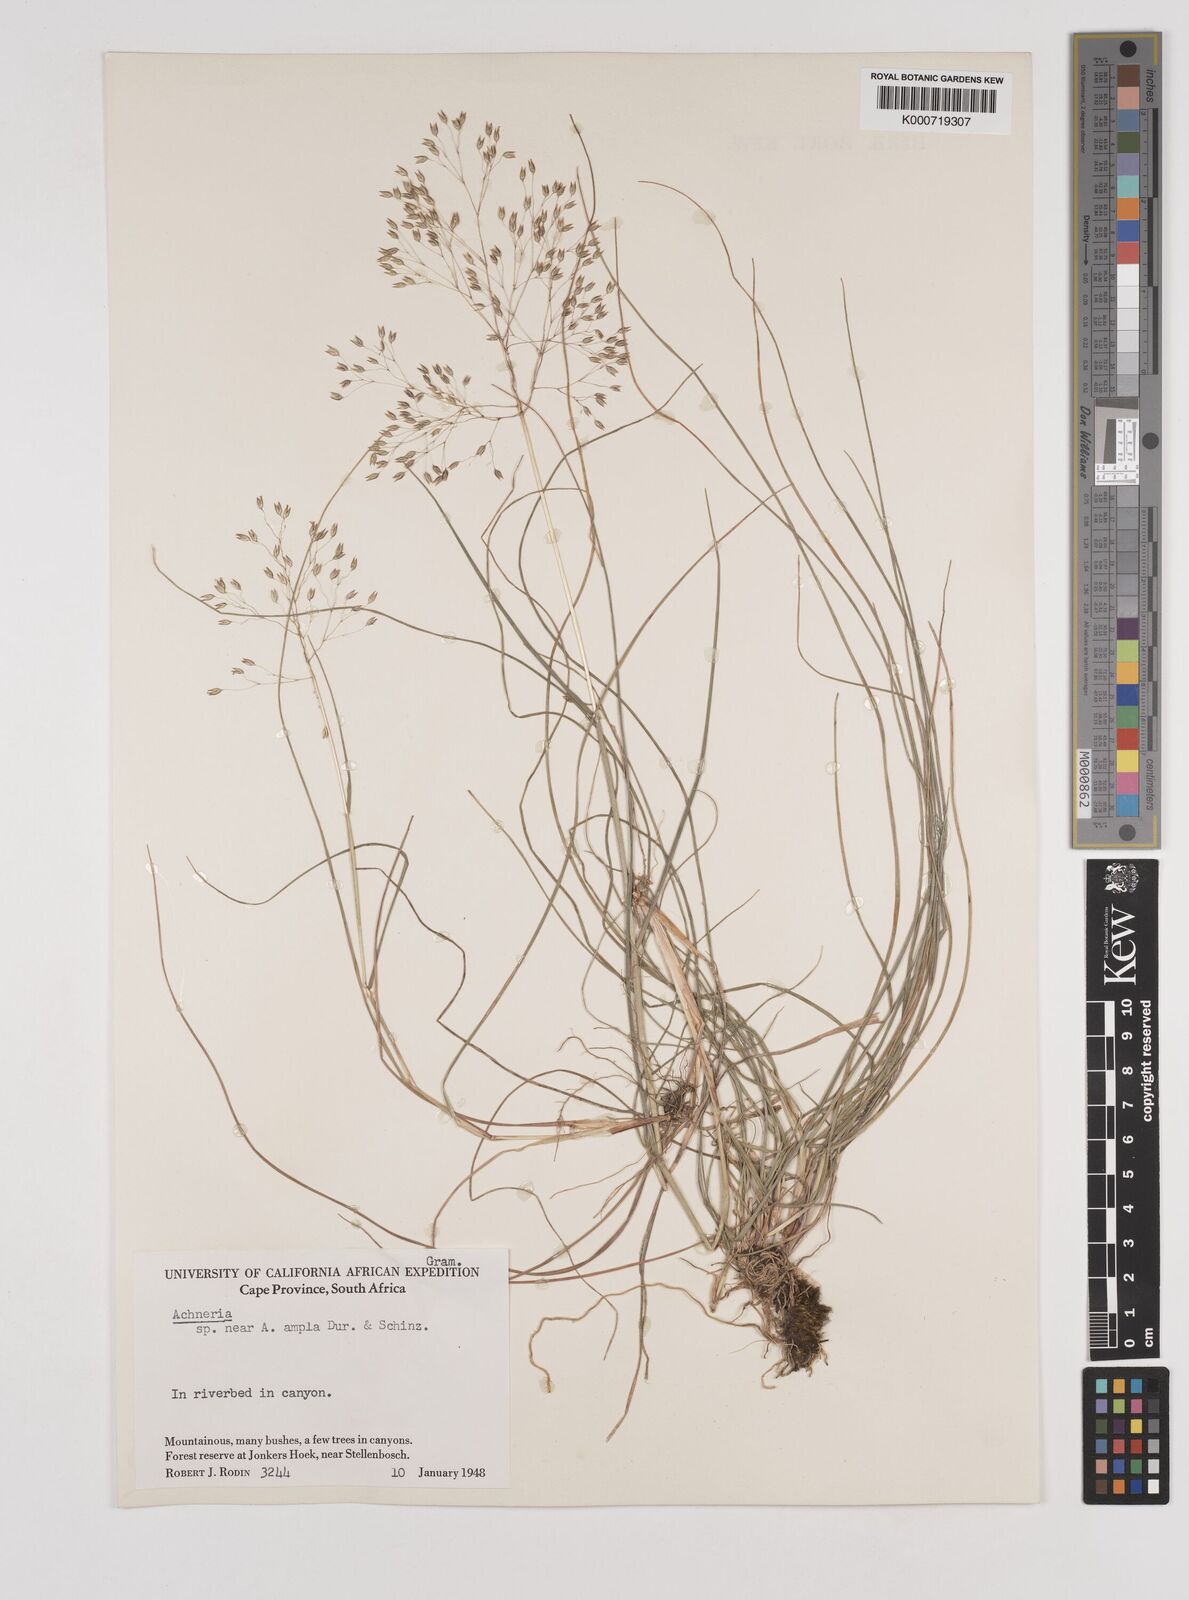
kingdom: Plantae
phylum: Tracheophyta
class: Liliopsida
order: Poales
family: Poaceae
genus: Pentameris
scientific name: Pentameris ampla
